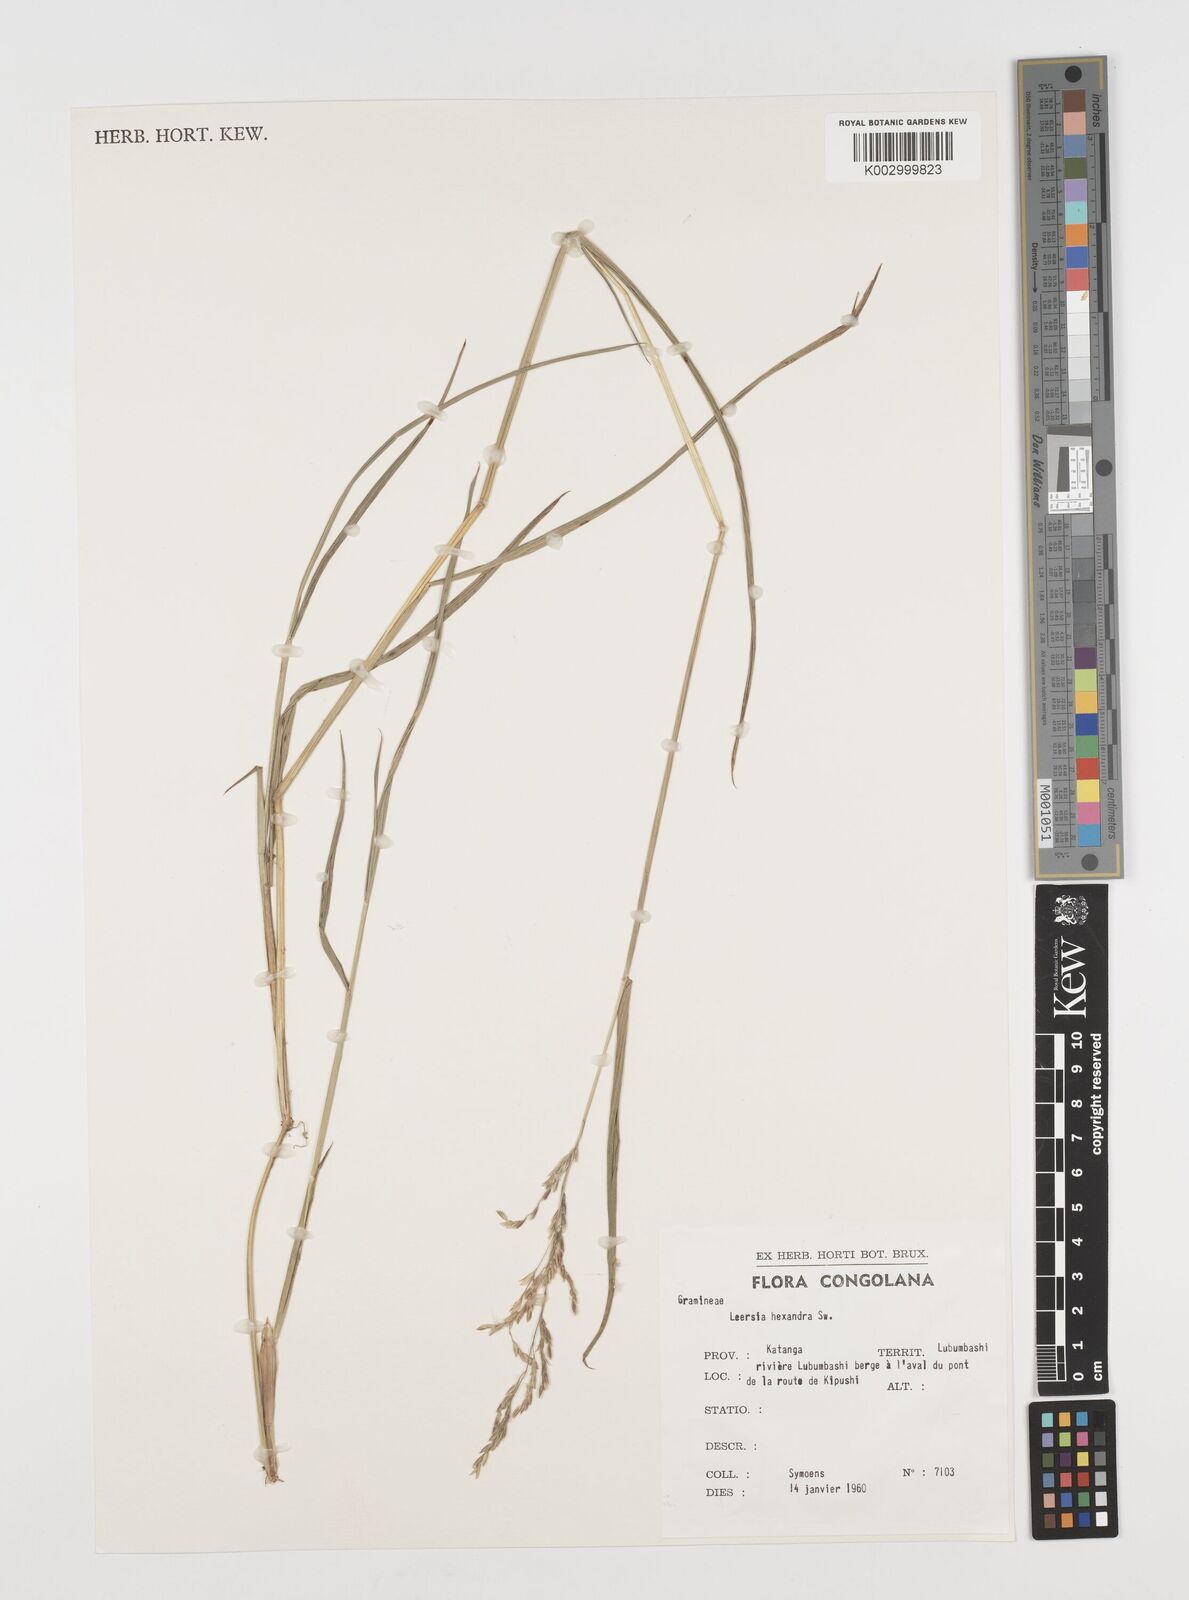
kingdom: Plantae
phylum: Tracheophyta
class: Liliopsida
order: Poales
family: Poaceae
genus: Leersia
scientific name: Leersia hexandra
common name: Southern cut grass
